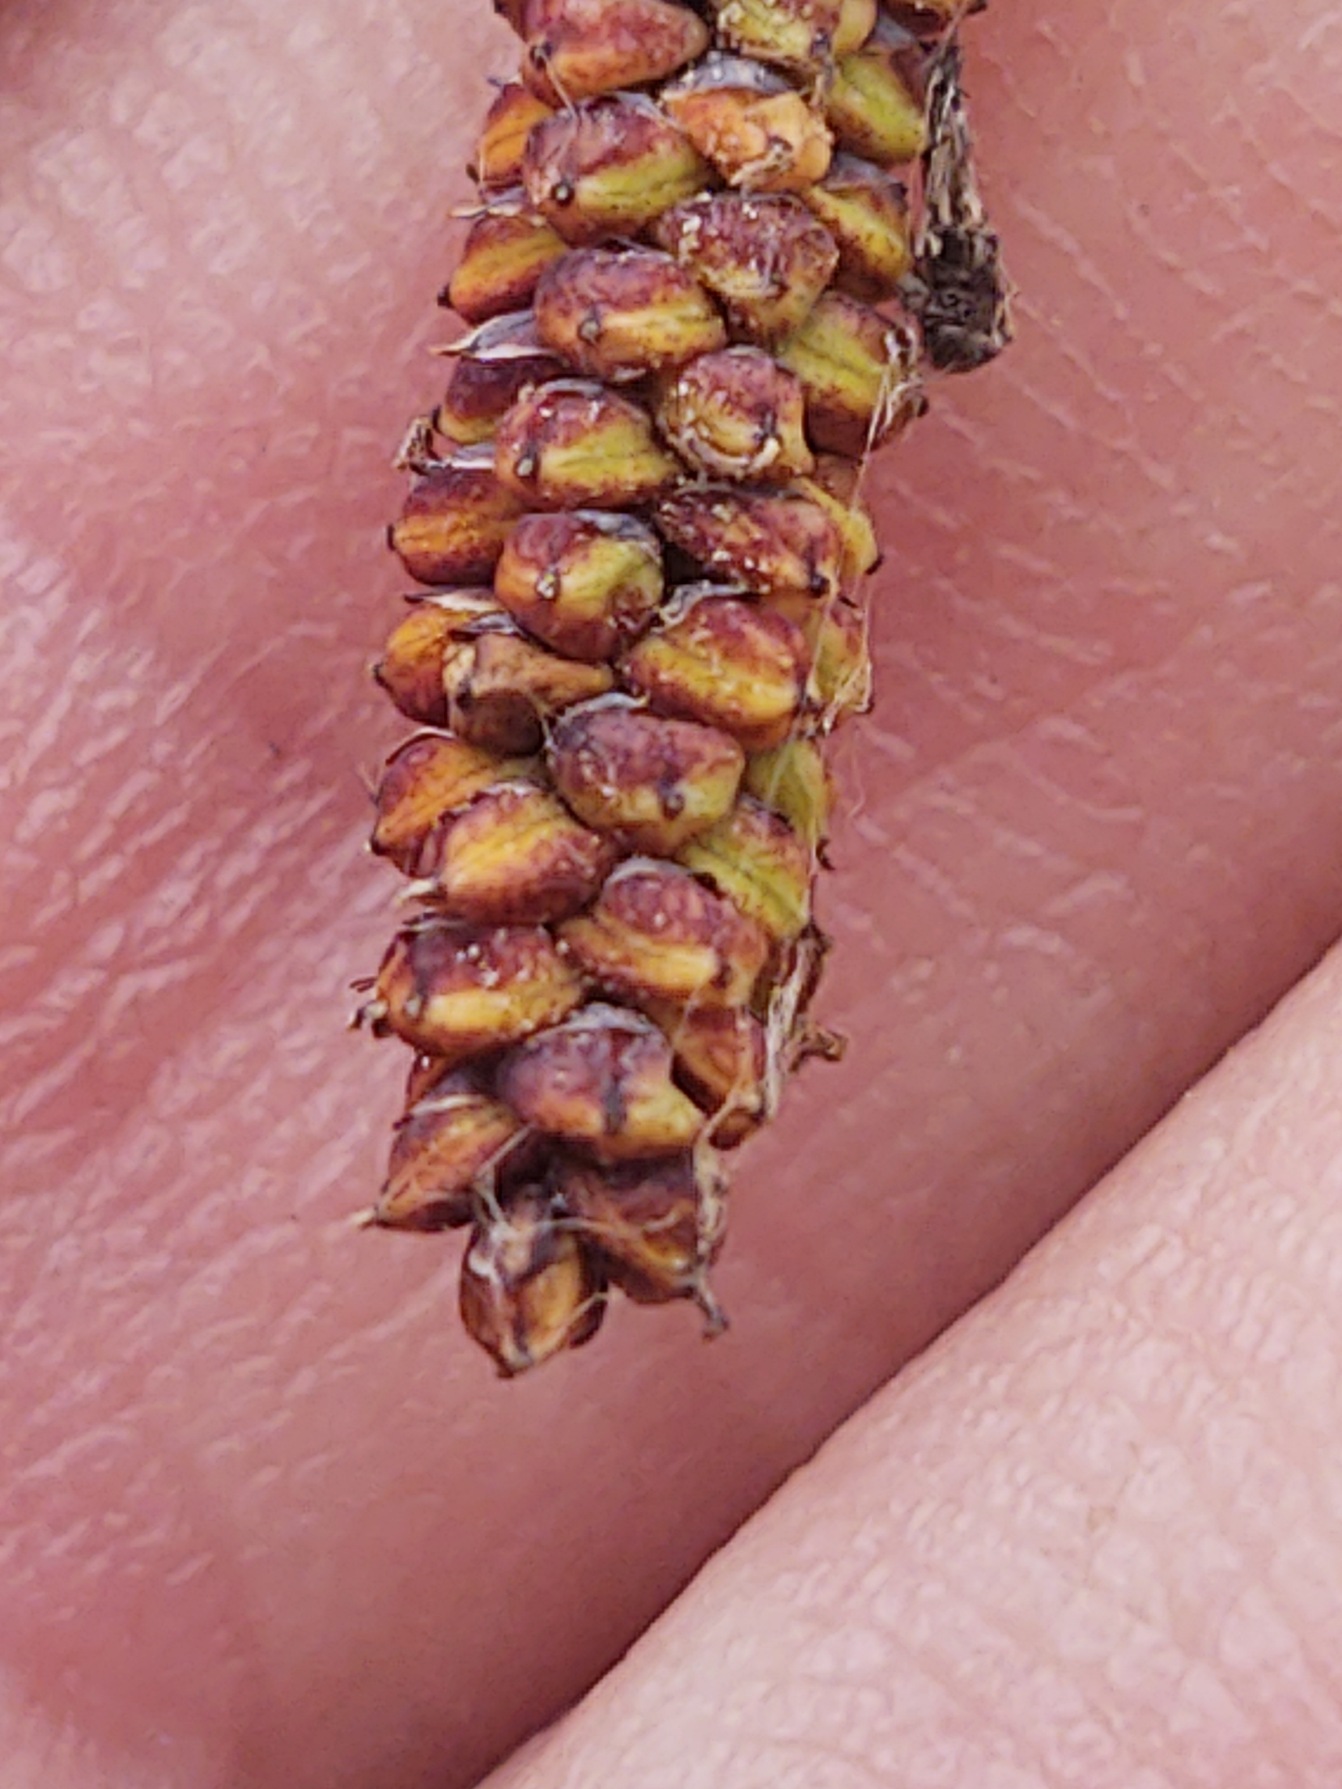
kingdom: Plantae
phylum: Tracheophyta
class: Liliopsida
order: Poales
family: Cyperaceae
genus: Carex
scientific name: Carex flacca
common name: Blågrøn star
